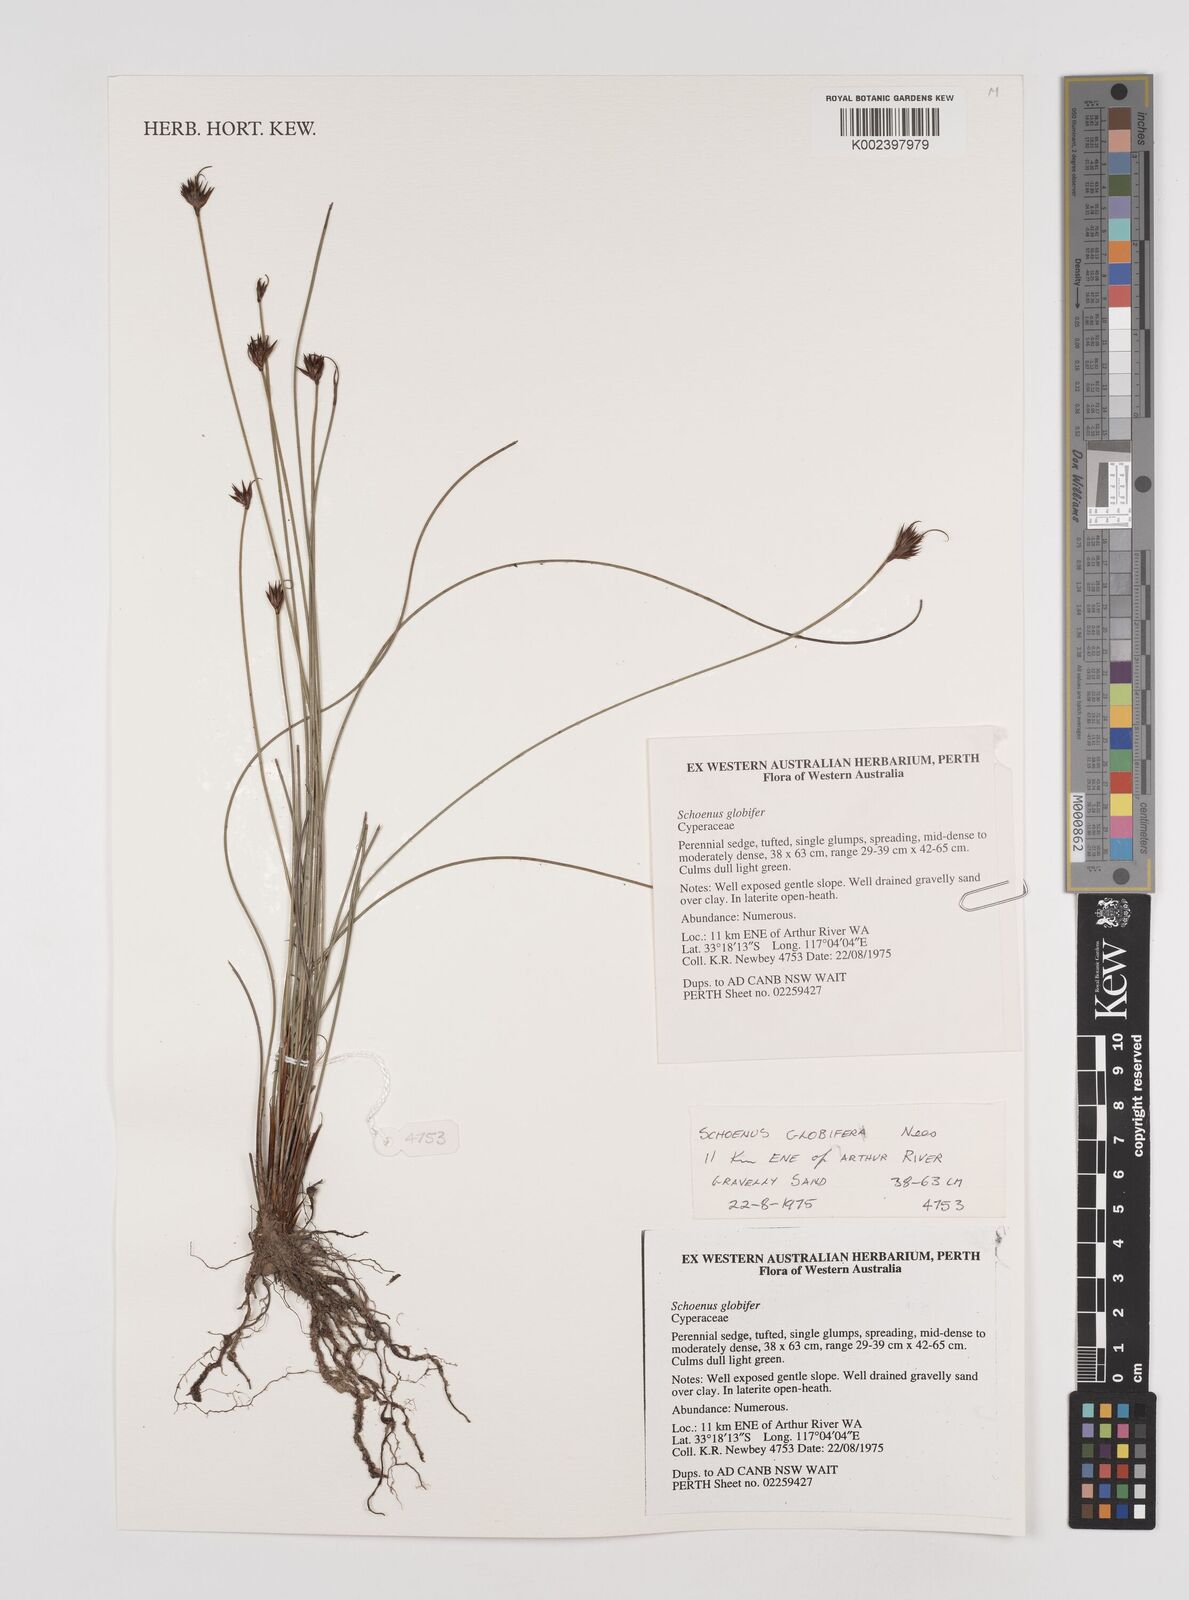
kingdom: Plantae
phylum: Tracheophyta
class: Liliopsida
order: Poales
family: Cyperaceae
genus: Schoenus
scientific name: Schoenus globifer
